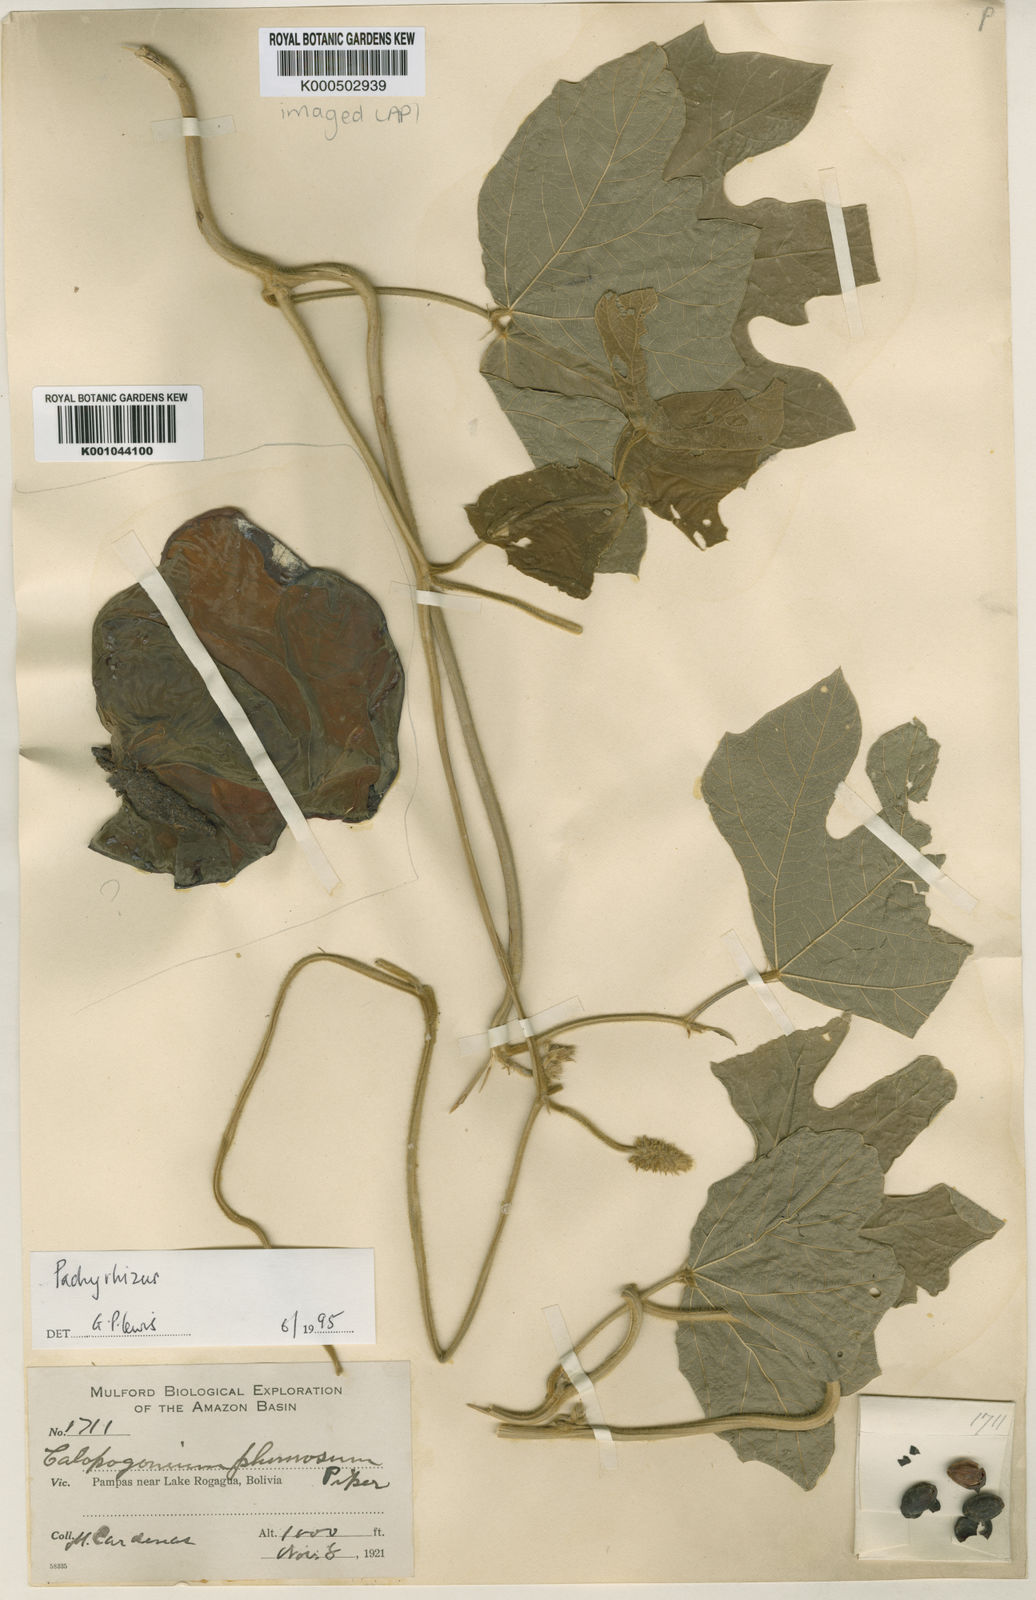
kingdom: Plantae
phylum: Tracheophyta
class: Magnoliopsida
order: Fabales
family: Fabaceae
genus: Pachyrhizus
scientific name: Pachyrhizus
